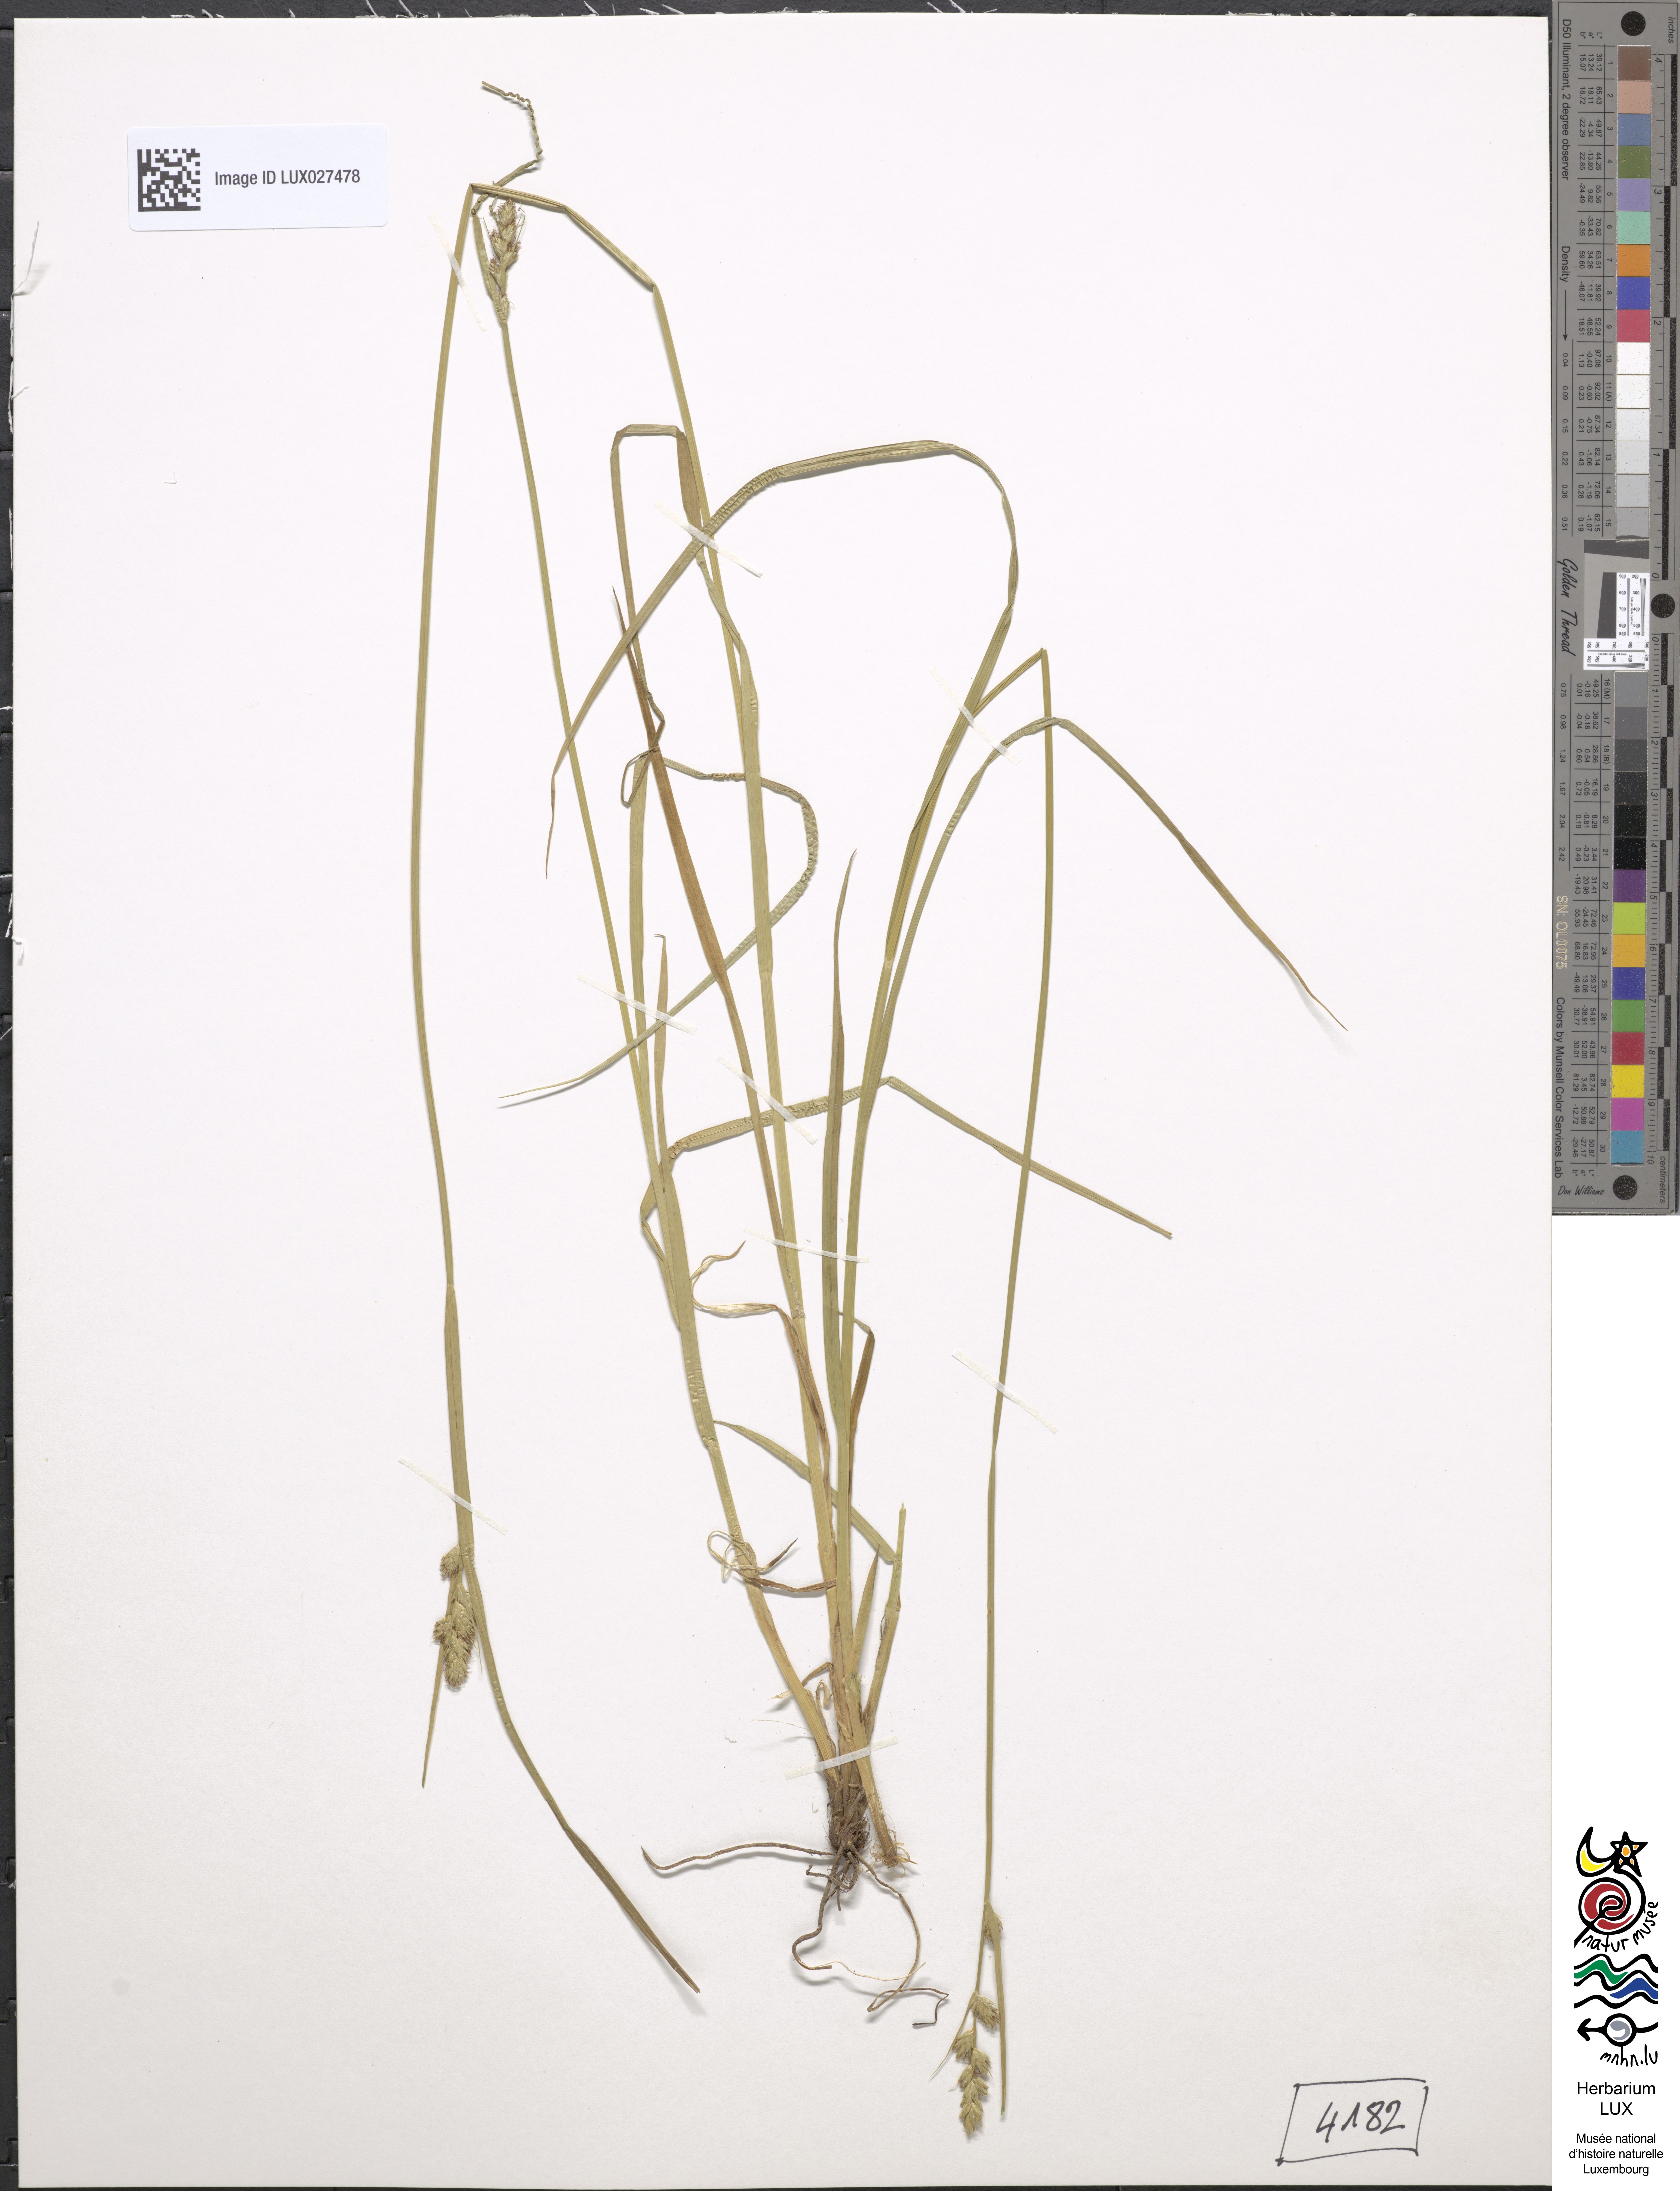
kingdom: Plantae
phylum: Tracheophyta
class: Liliopsida
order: Poales
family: Cyperaceae
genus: Carex
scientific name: Carex remota
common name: Remote sedge
